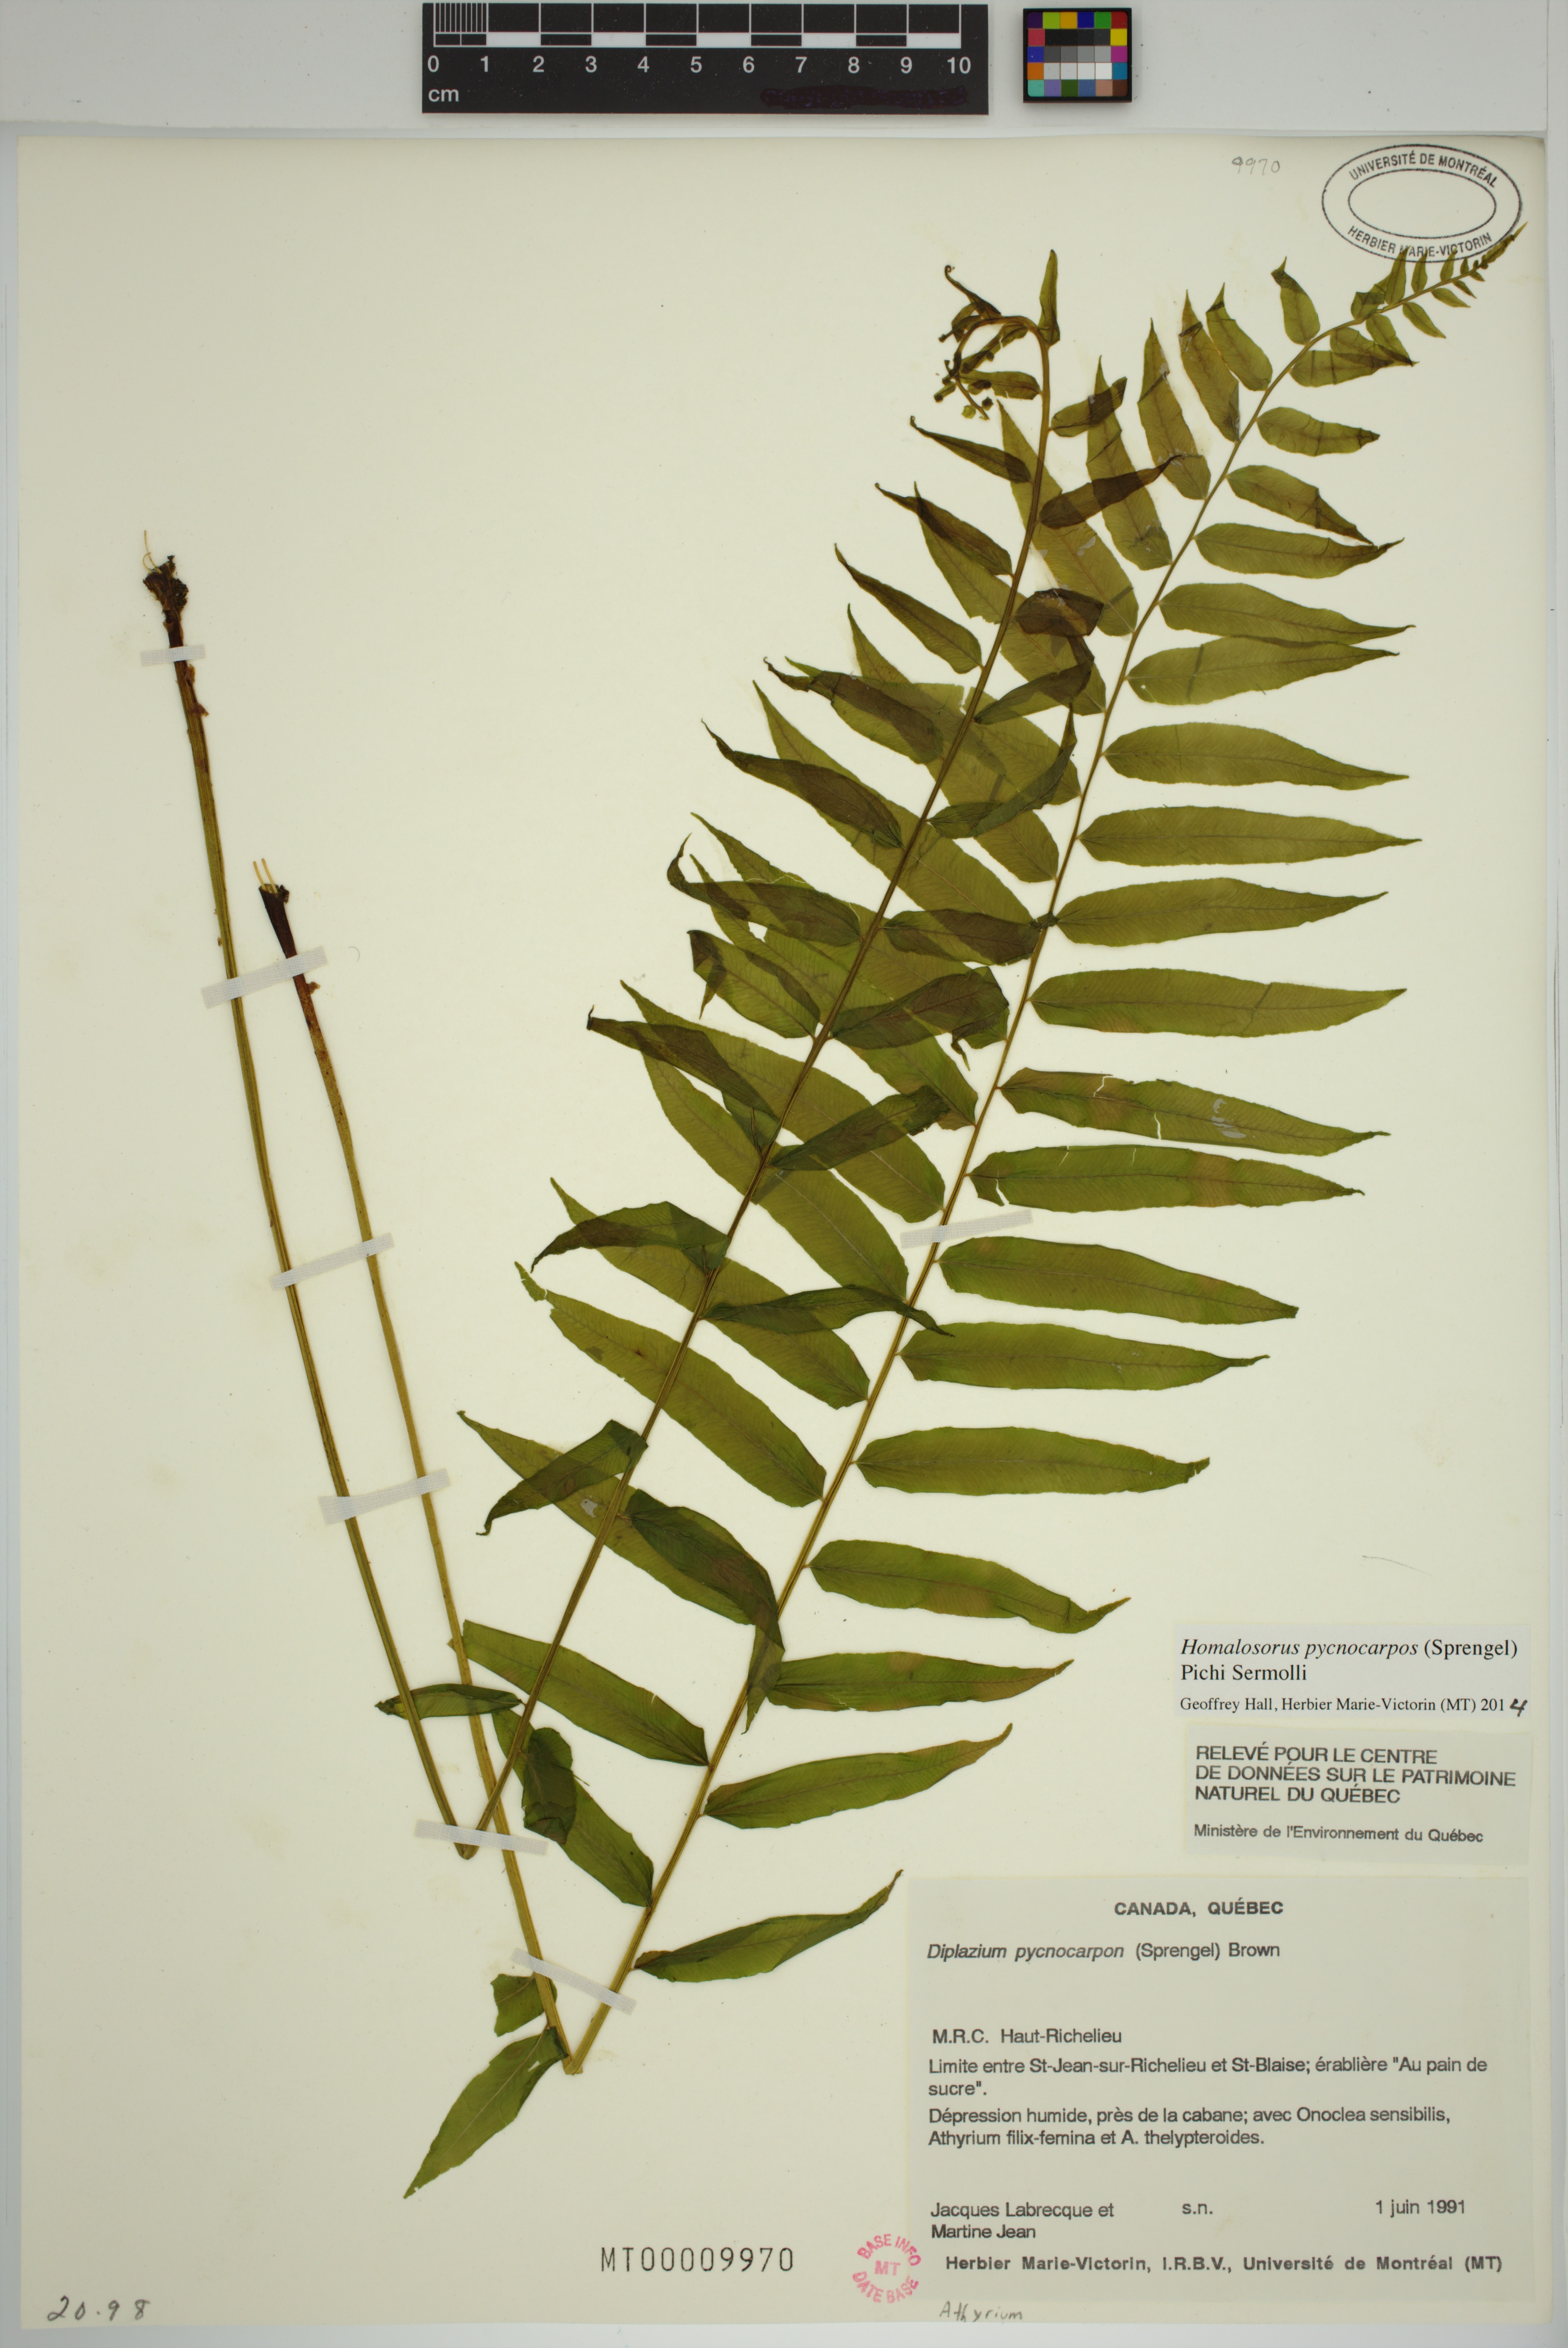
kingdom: Plantae
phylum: Tracheophyta
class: Polypodiopsida
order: Polypodiales
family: Diplaziopsidaceae
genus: Homalosorus
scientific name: Homalosorus pycnocarpos
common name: Glade fern
